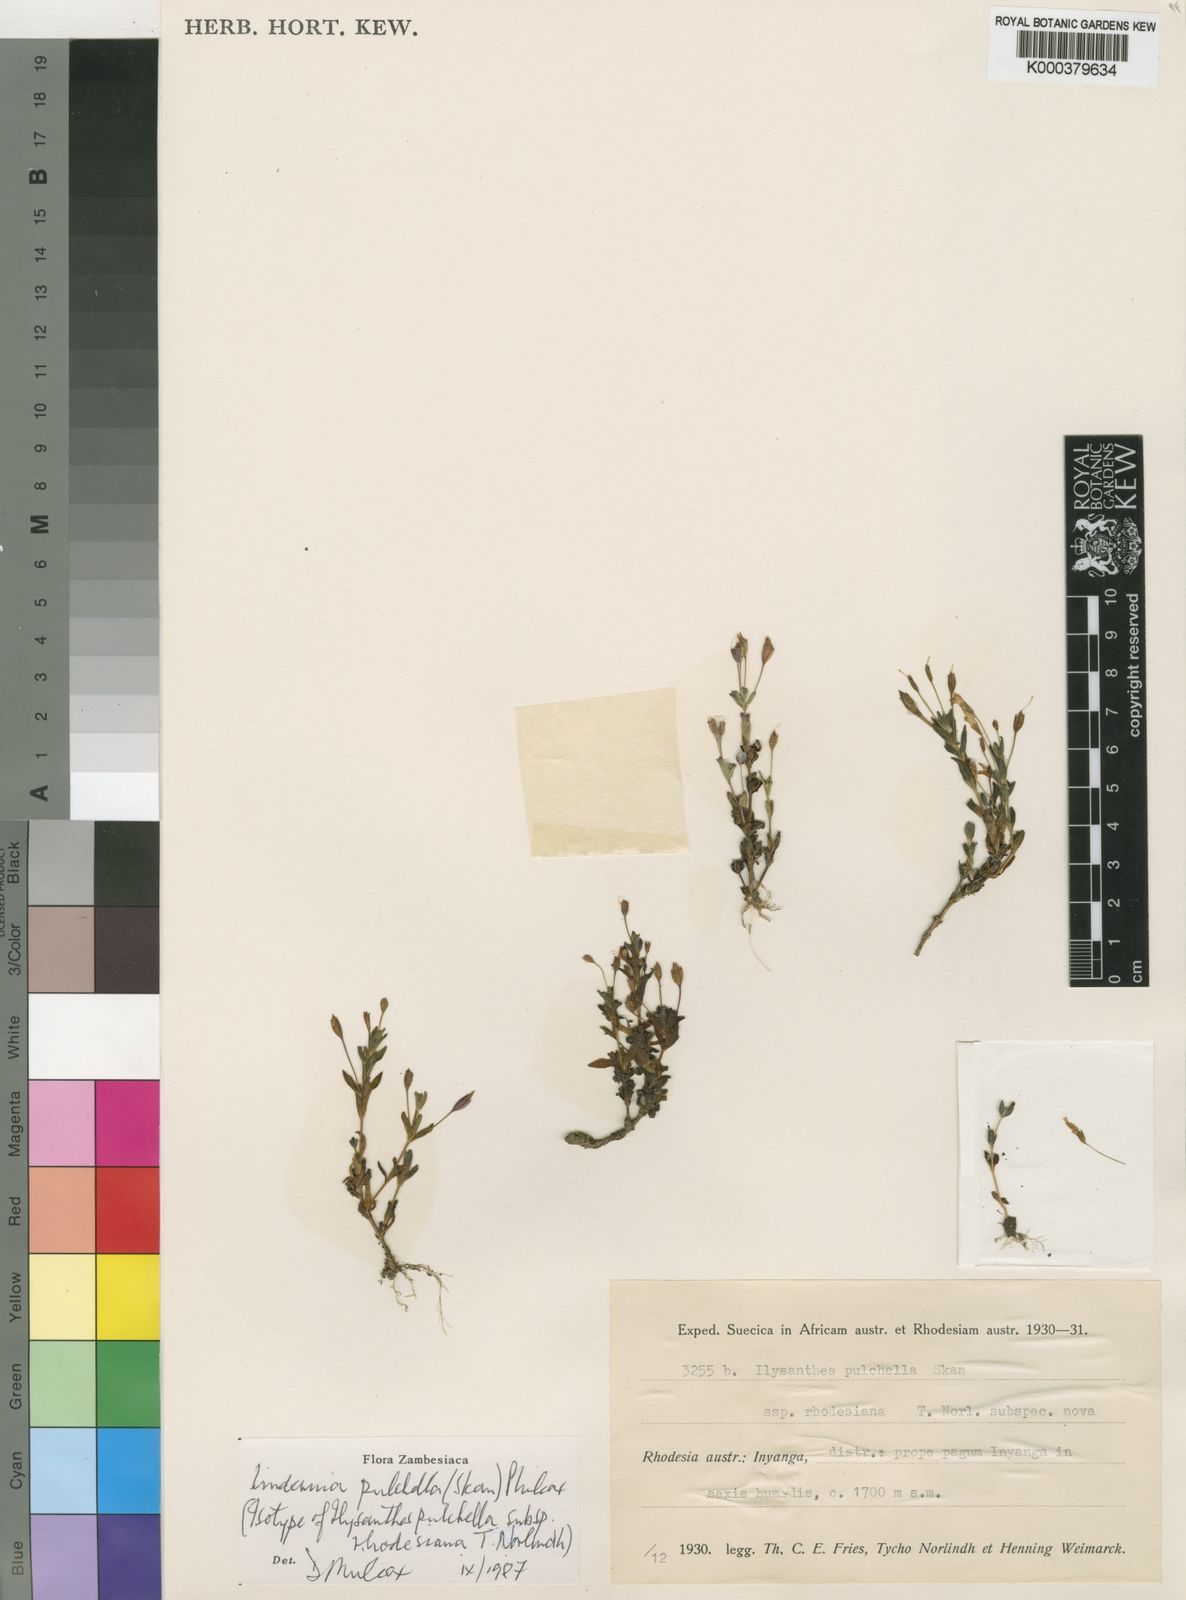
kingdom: Plantae
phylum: Tracheophyta
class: Magnoliopsida
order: Lamiales
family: Linderniaceae
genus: Linderniella
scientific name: Linderniella pulchella
